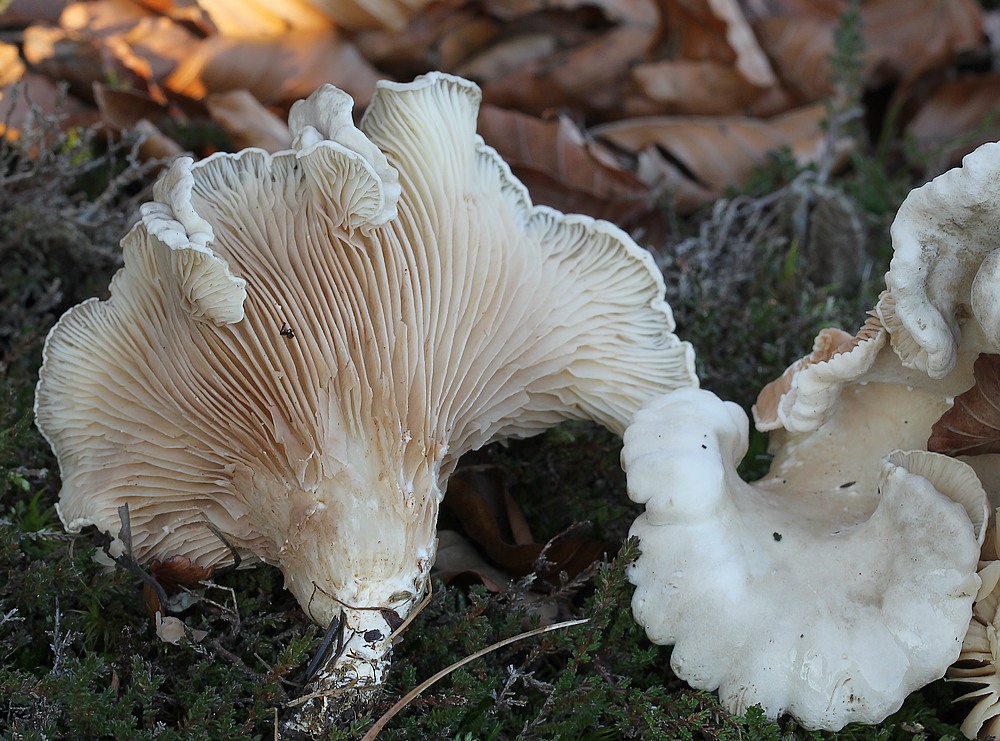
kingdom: Fungi
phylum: Basidiomycota
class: Agaricomycetes
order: Agaricales
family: Entolomataceae
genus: Clitopilus
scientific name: Clitopilus prunulus
